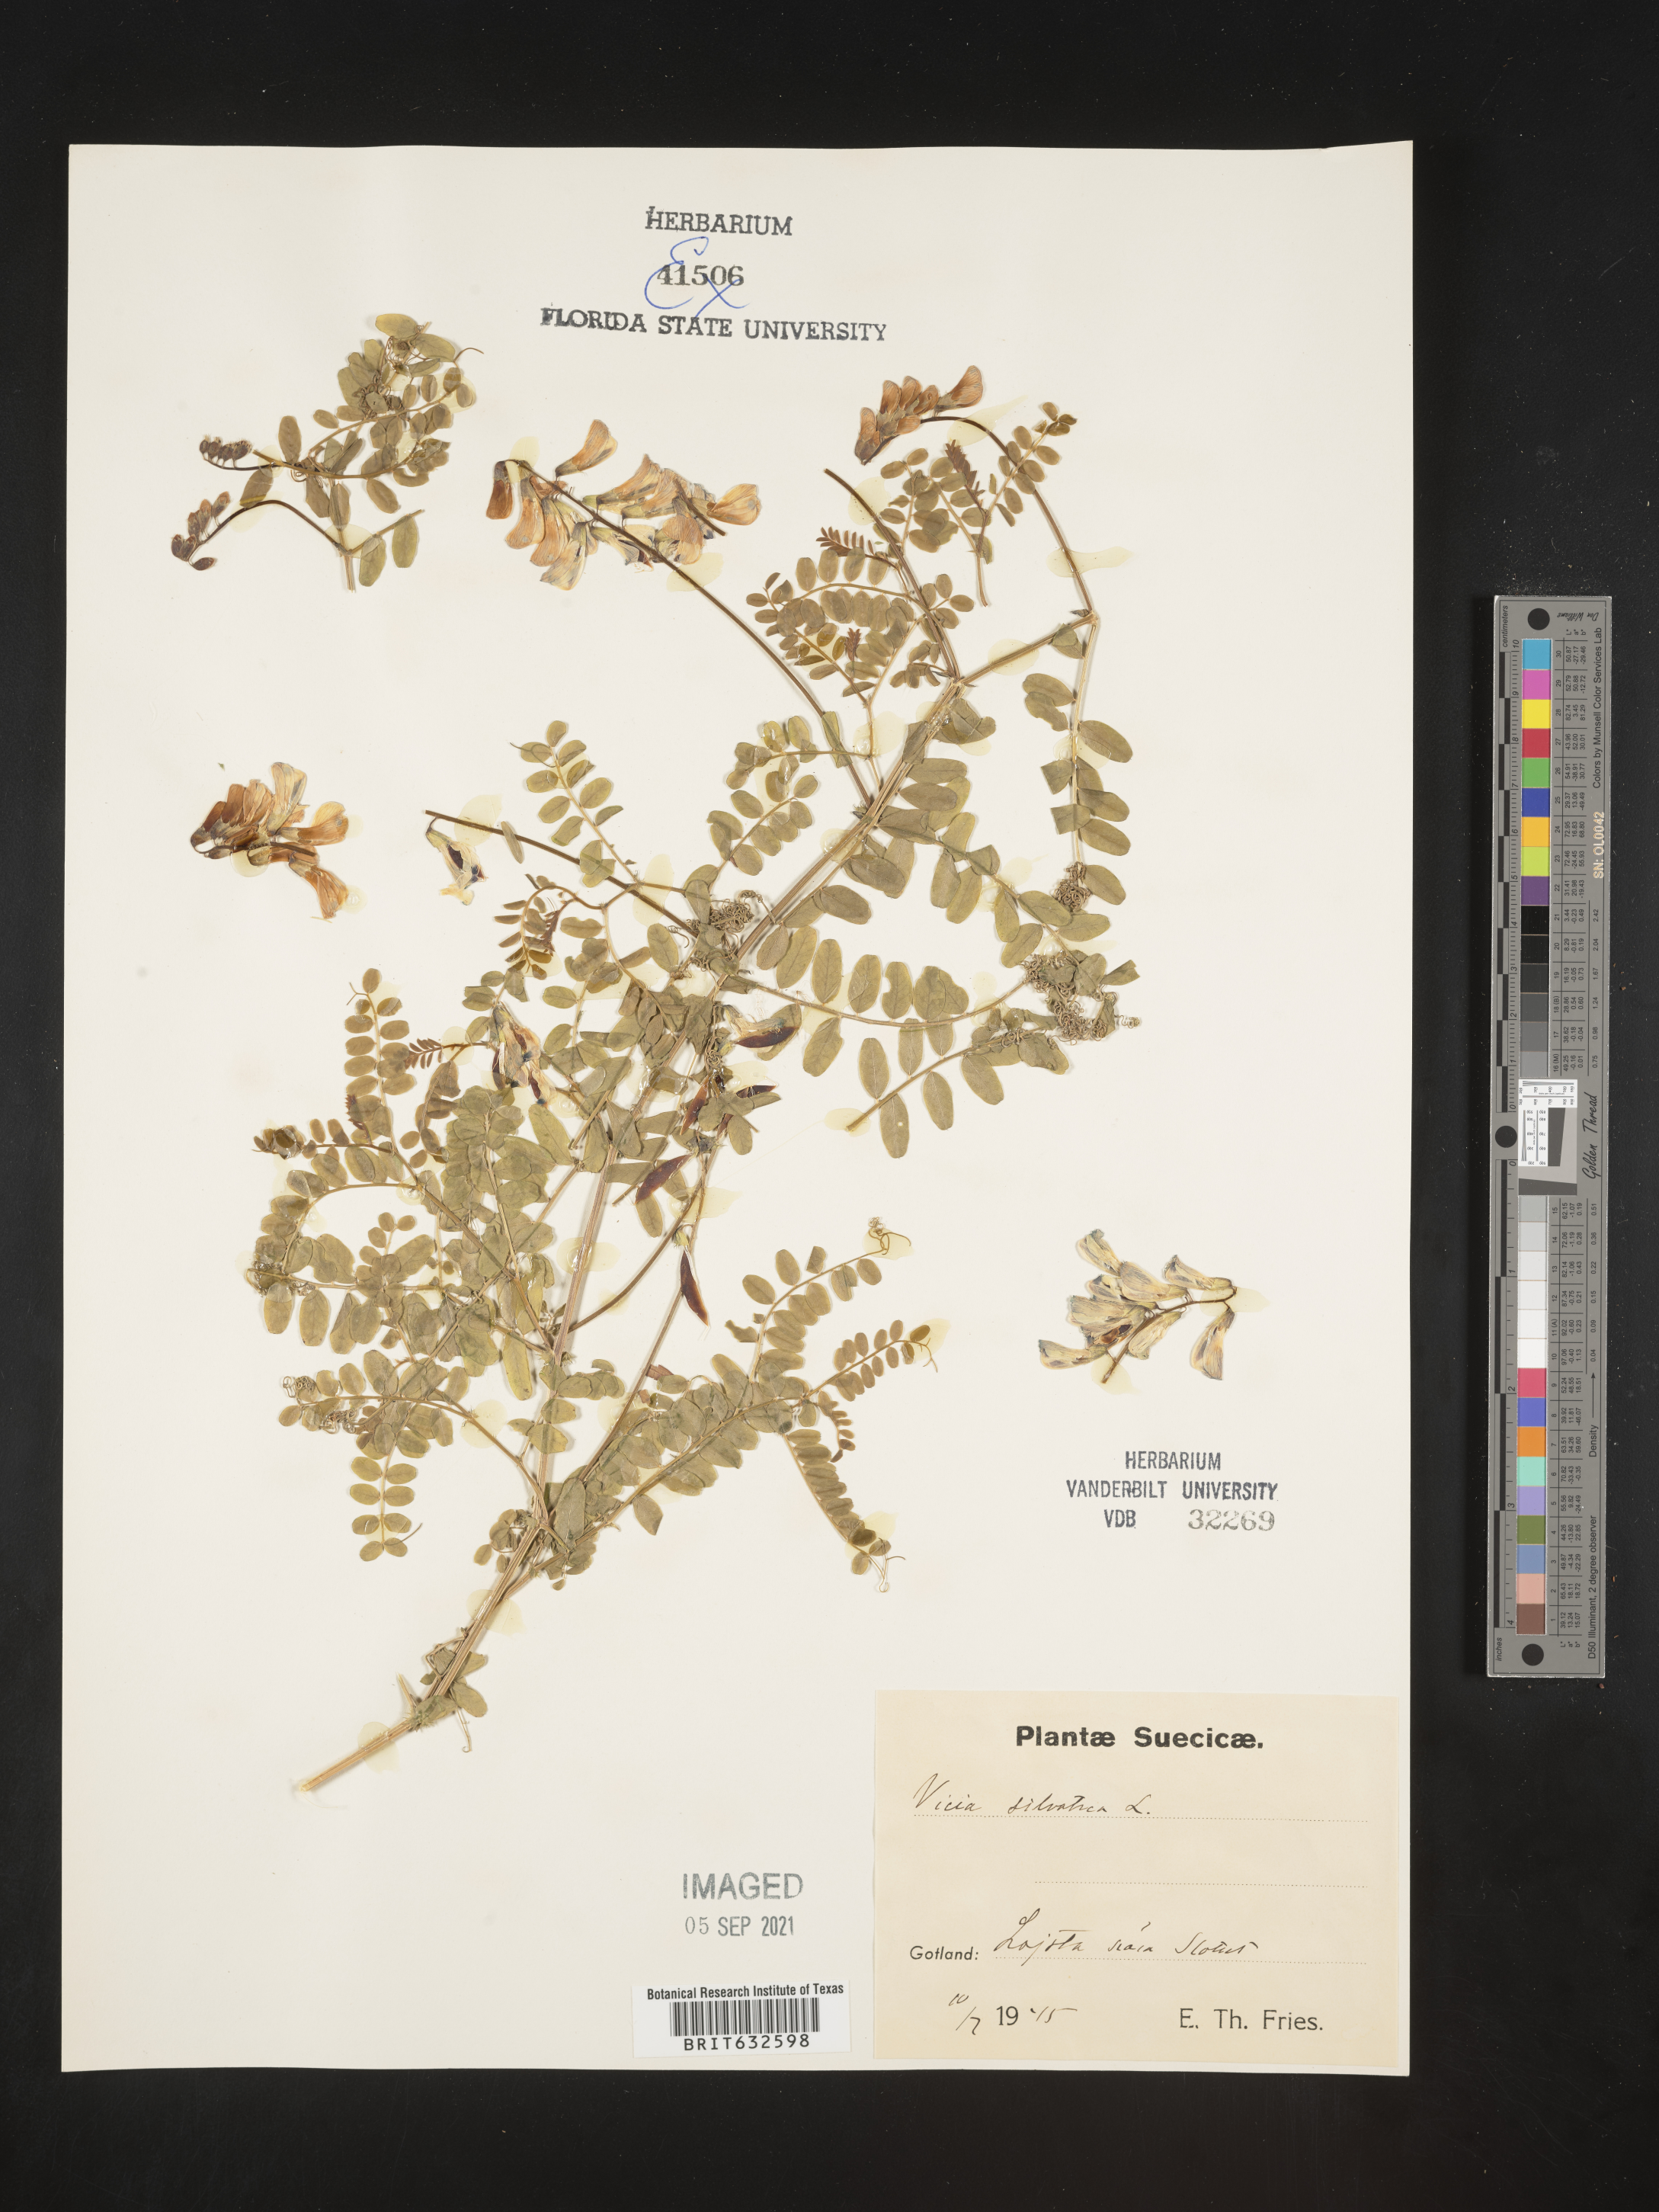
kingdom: Plantae
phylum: Tracheophyta
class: Magnoliopsida
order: Fabales
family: Fabaceae
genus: Vicia
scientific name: Vicia
